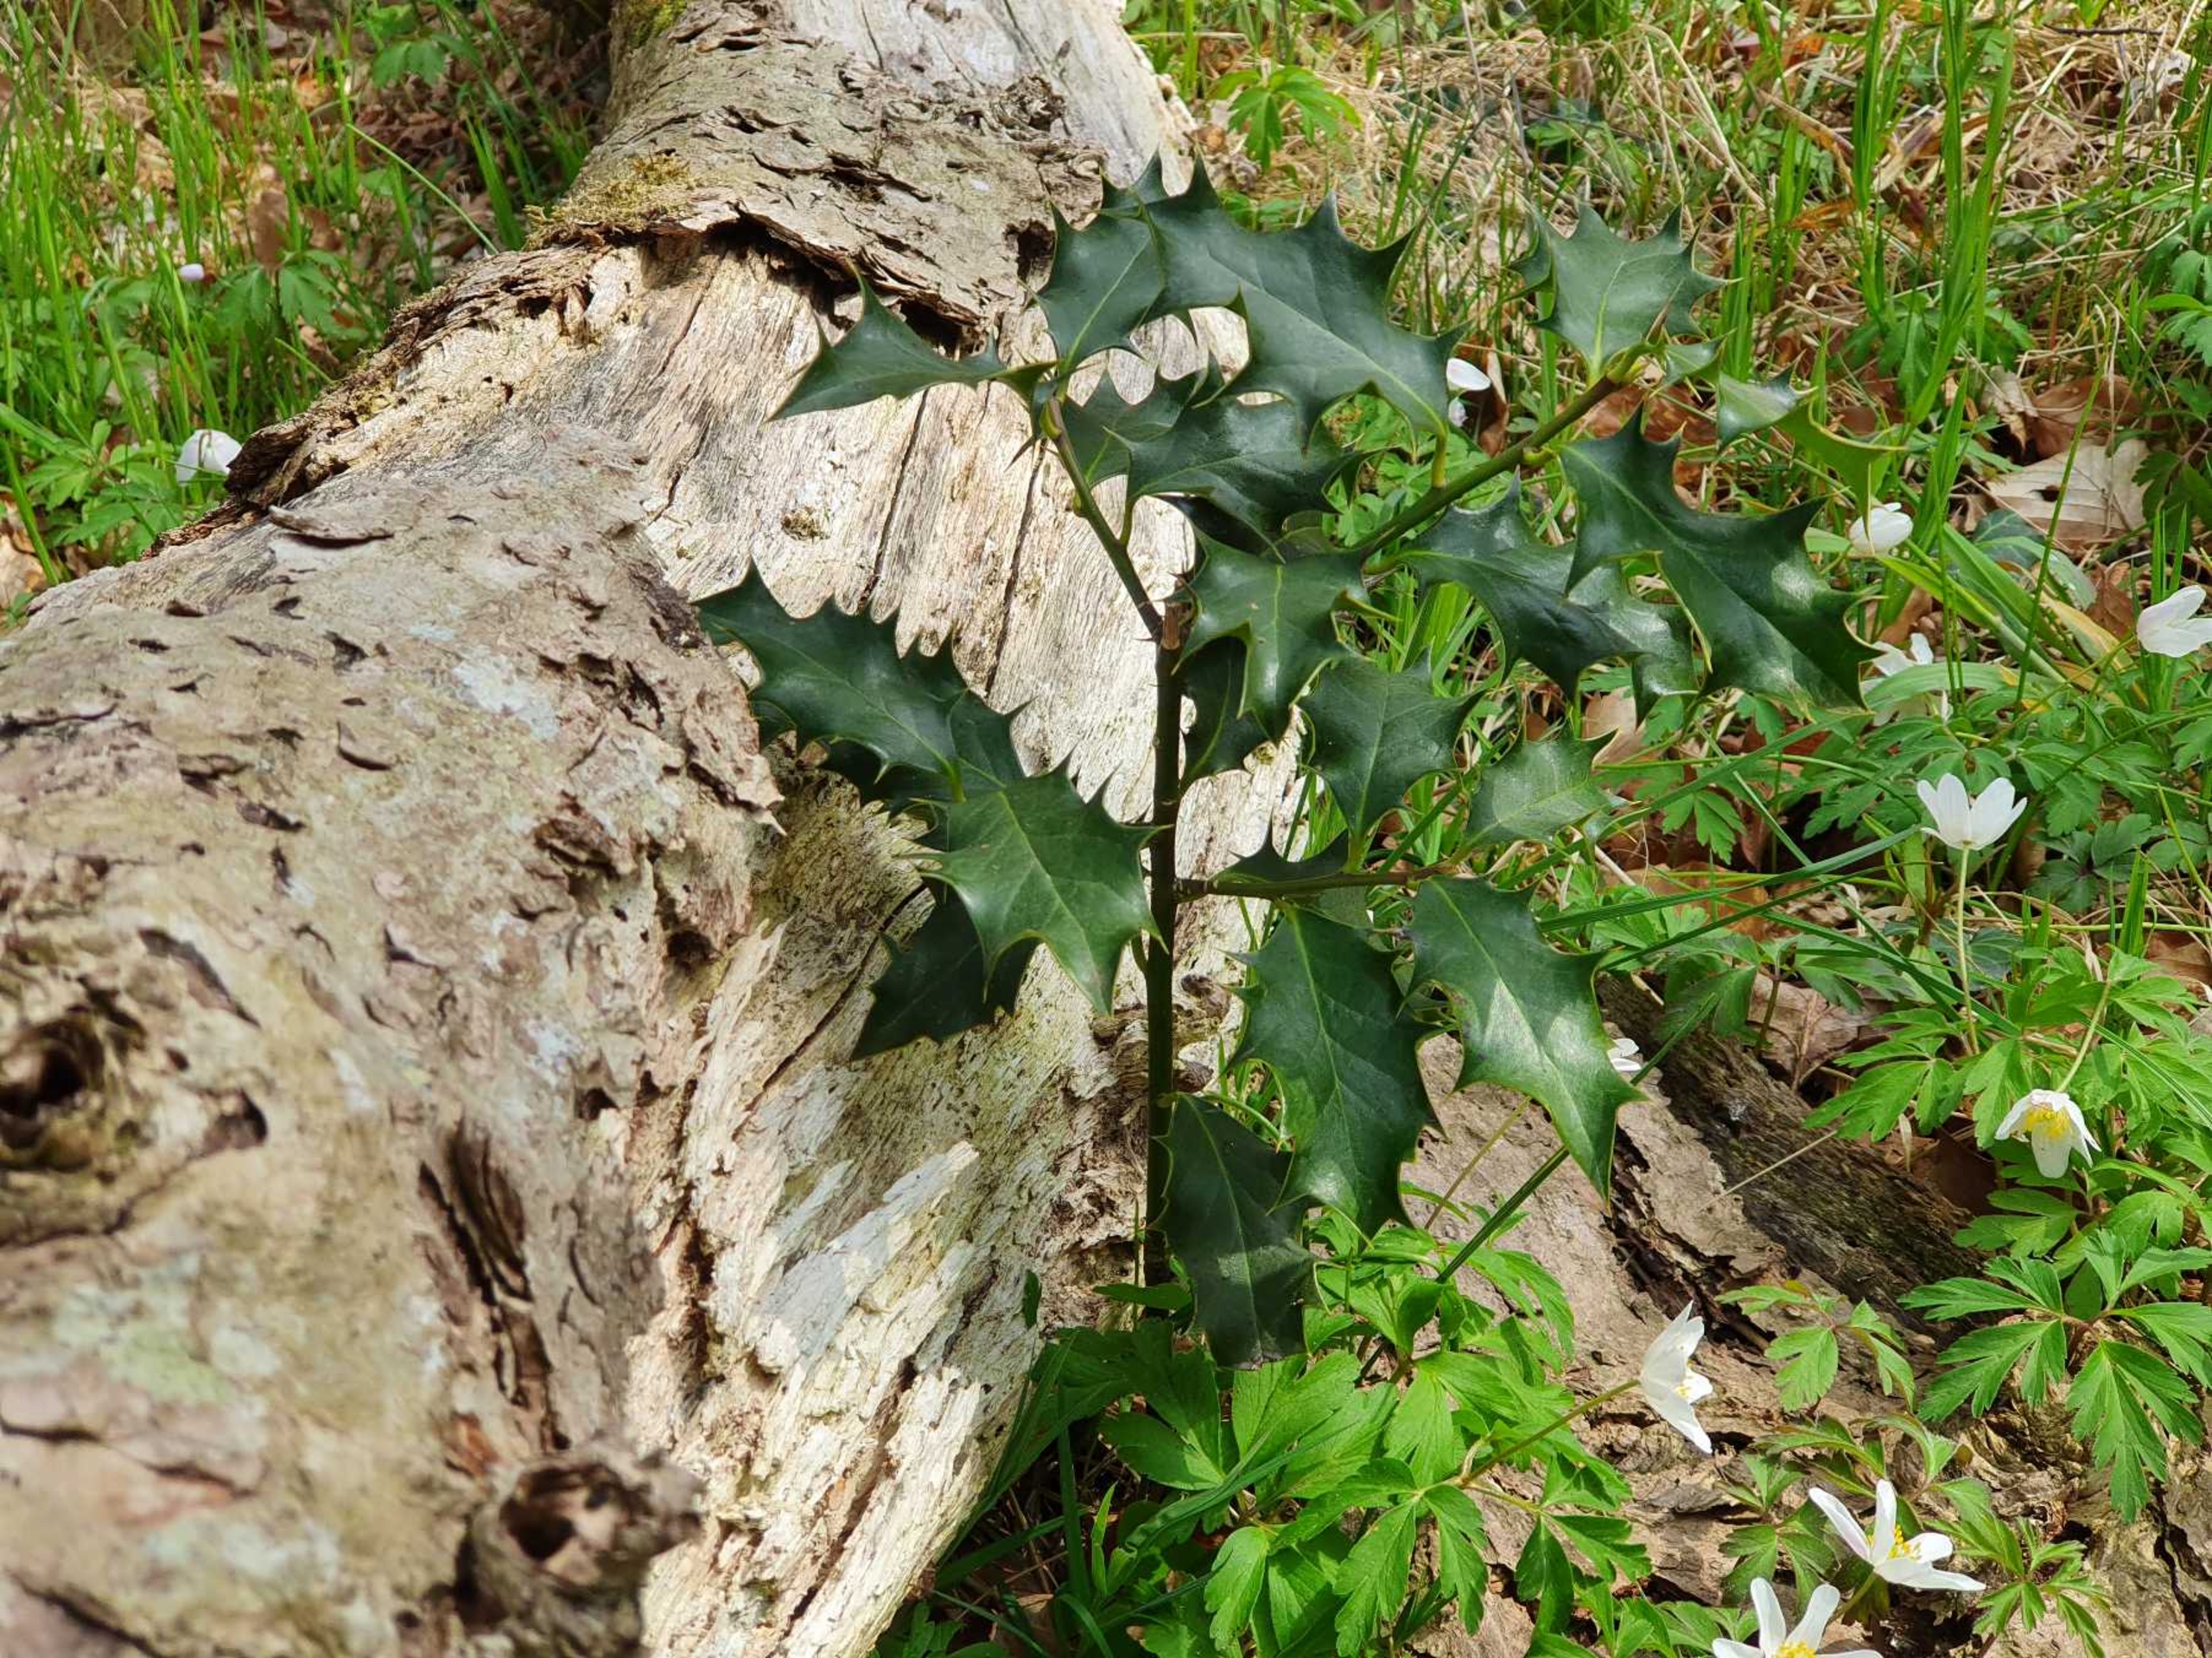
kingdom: Plantae
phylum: Tracheophyta
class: Magnoliopsida
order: Aquifoliales
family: Aquifoliaceae
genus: Ilex
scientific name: Ilex aquifolium
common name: Kristtorn
